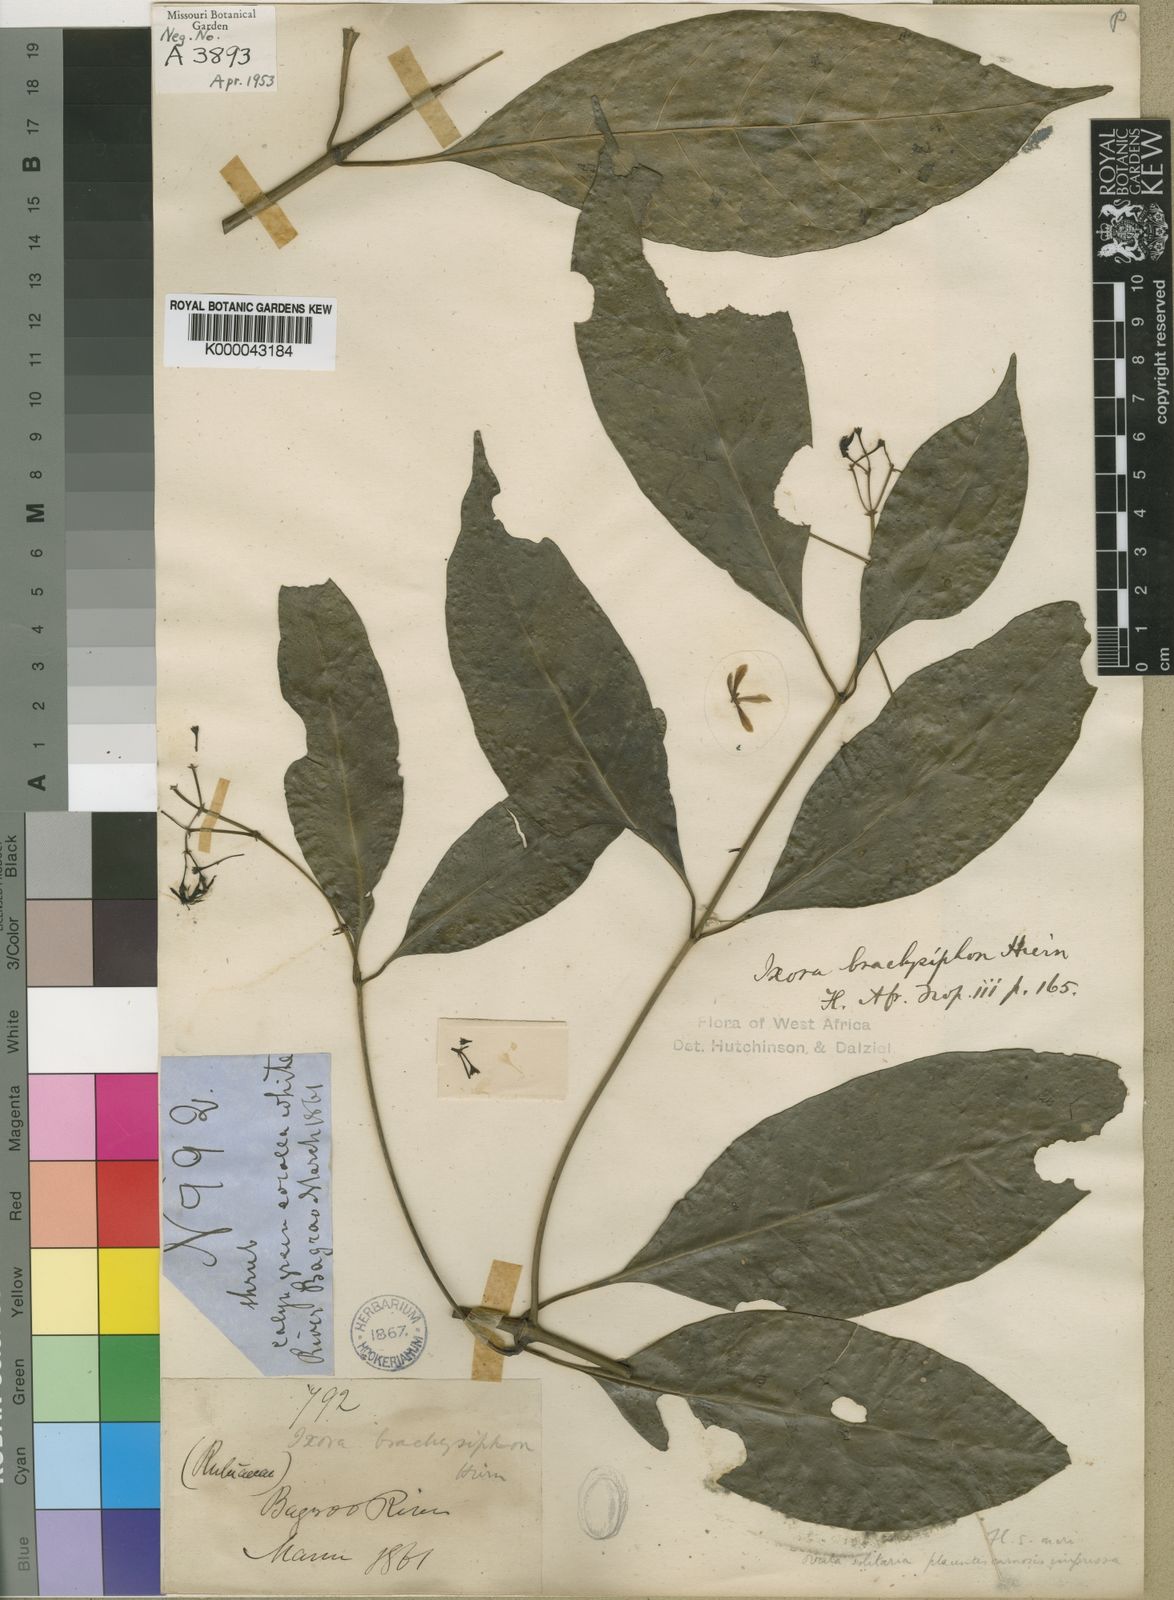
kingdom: Plantae
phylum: Tracheophyta
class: Magnoliopsida
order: Gentianales
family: Rubiaceae
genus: Tarenna
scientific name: Tarenna brachysiphon
